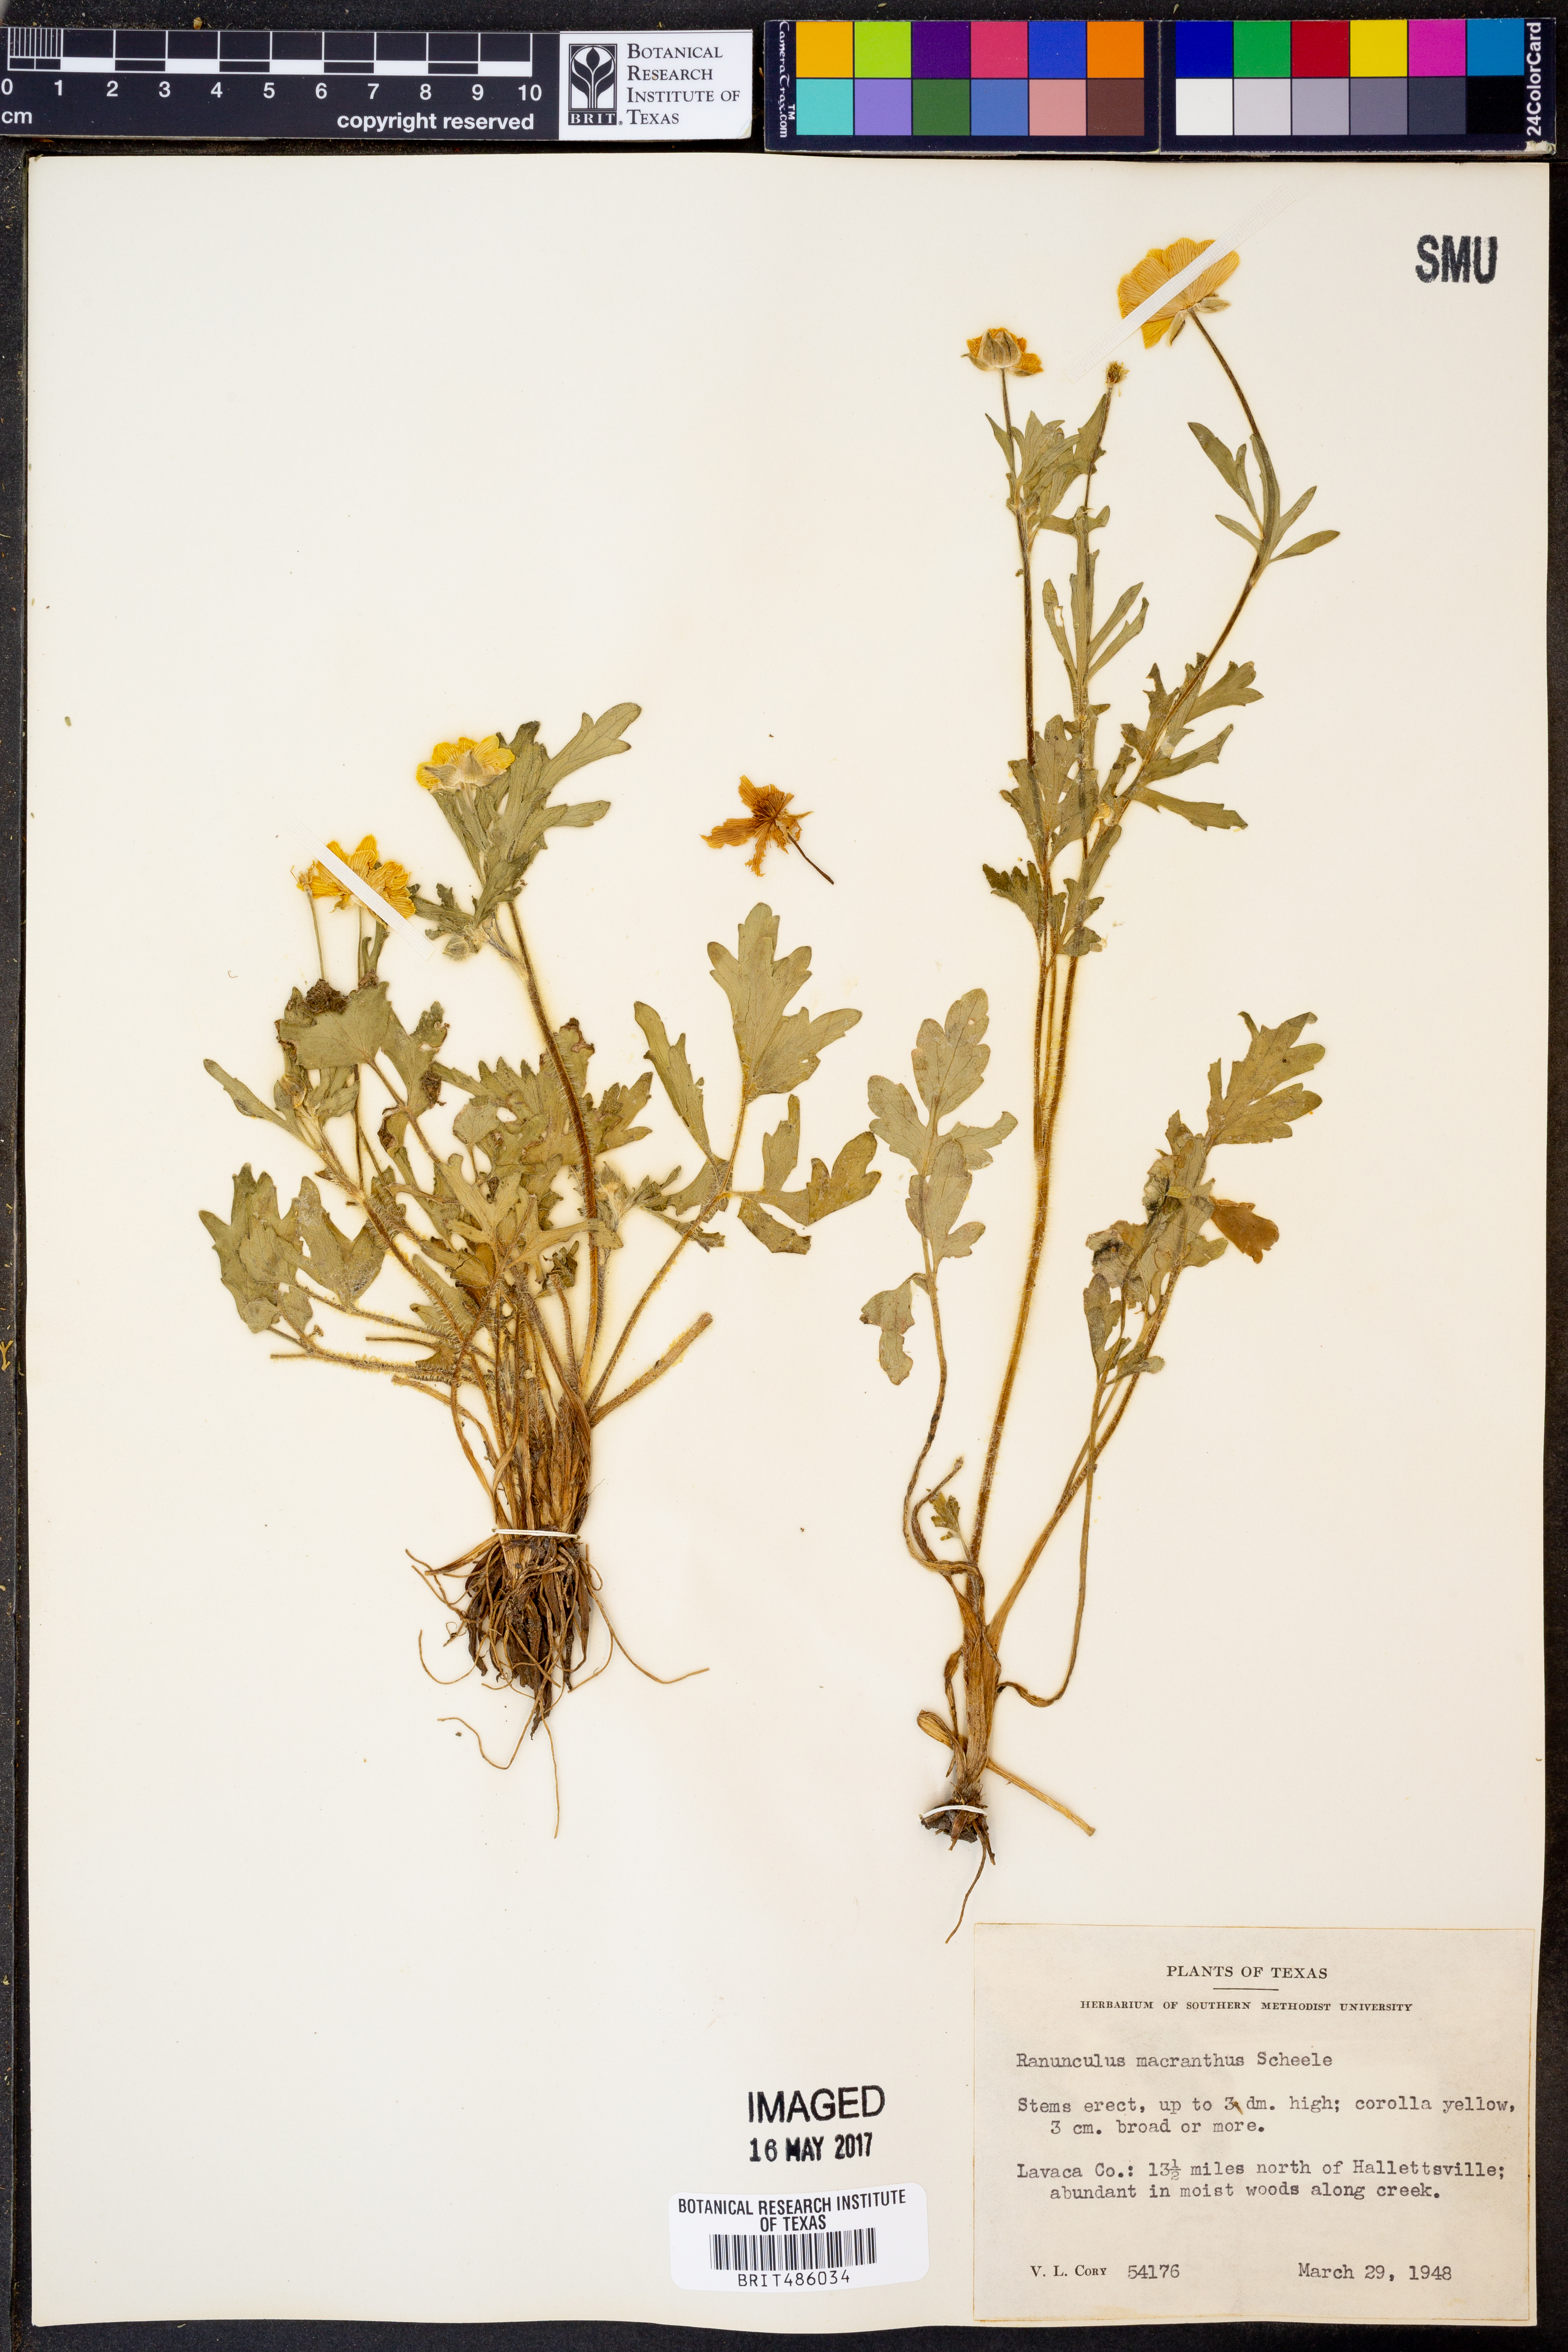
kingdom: Plantae
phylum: Tracheophyta
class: Magnoliopsida
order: Ranunculales
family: Ranunculaceae
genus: Ranunculus
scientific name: Ranunculus macranthus
